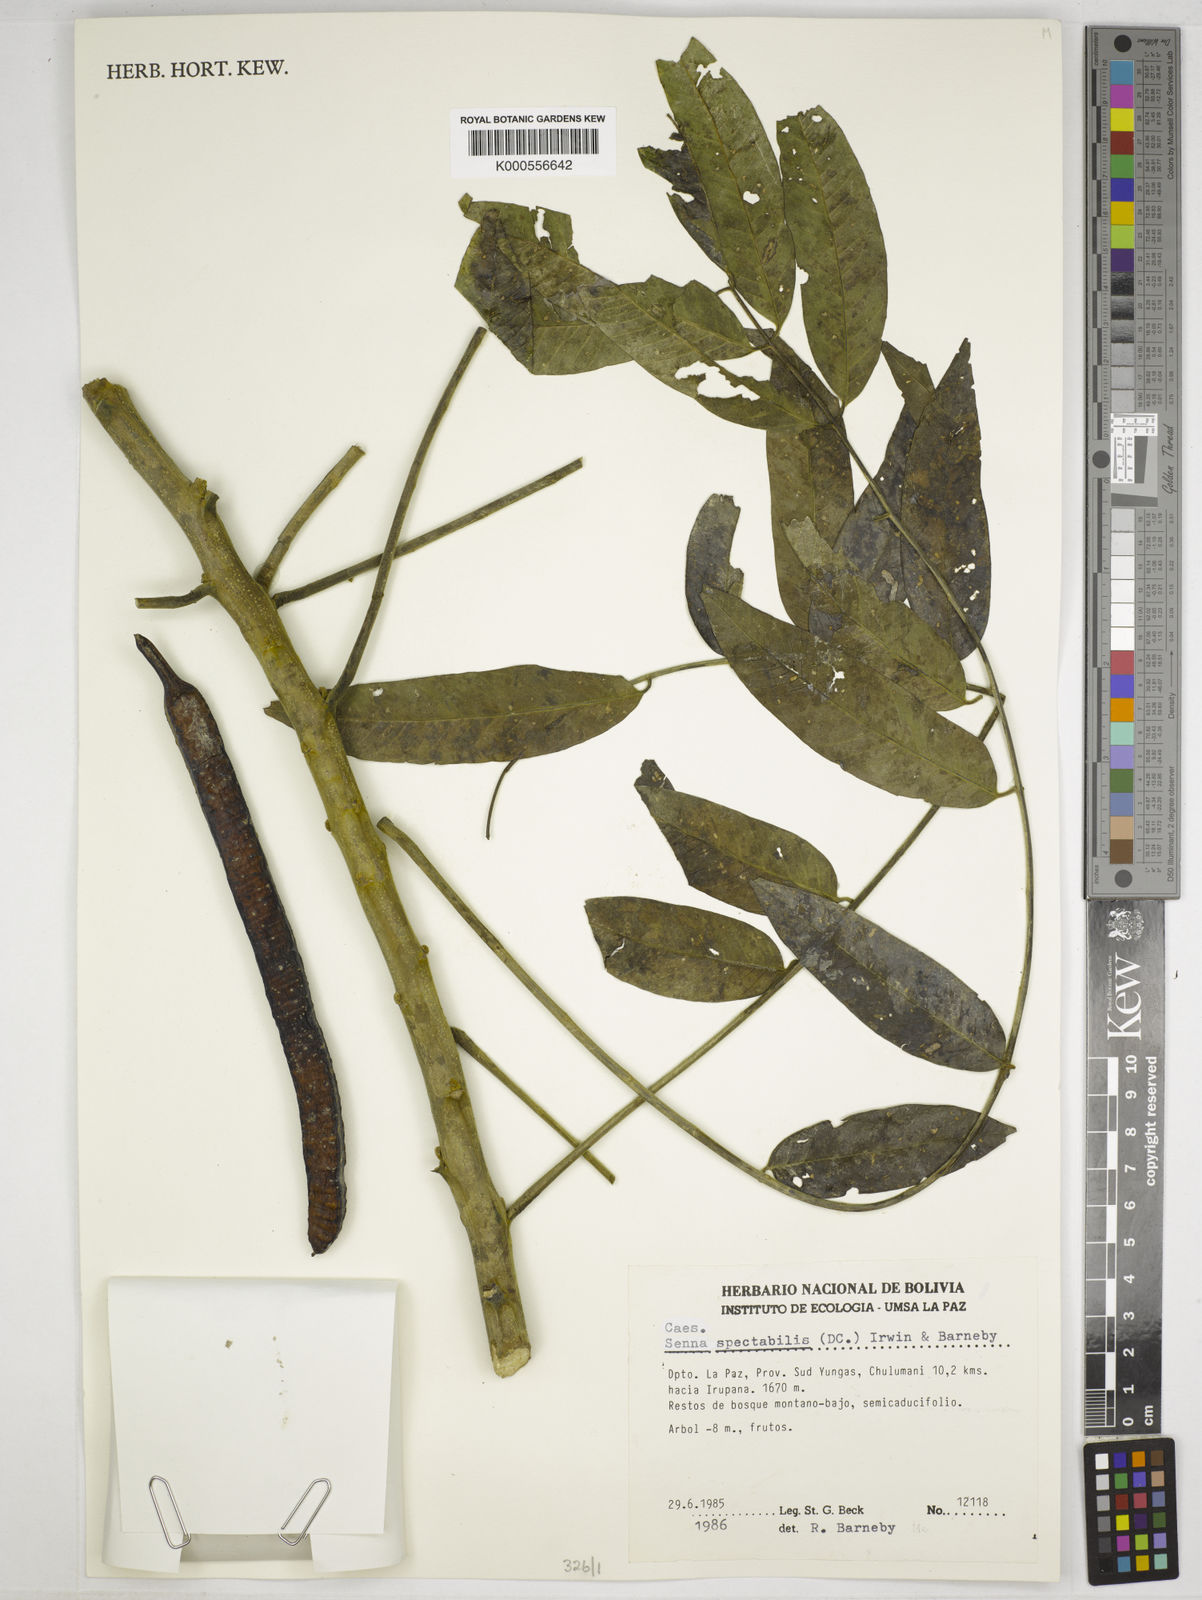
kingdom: Plantae
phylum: Tracheophyta
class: Magnoliopsida
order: Fabales
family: Fabaceae
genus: Senna
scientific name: Senna spectabilis
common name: Casia amarilla
